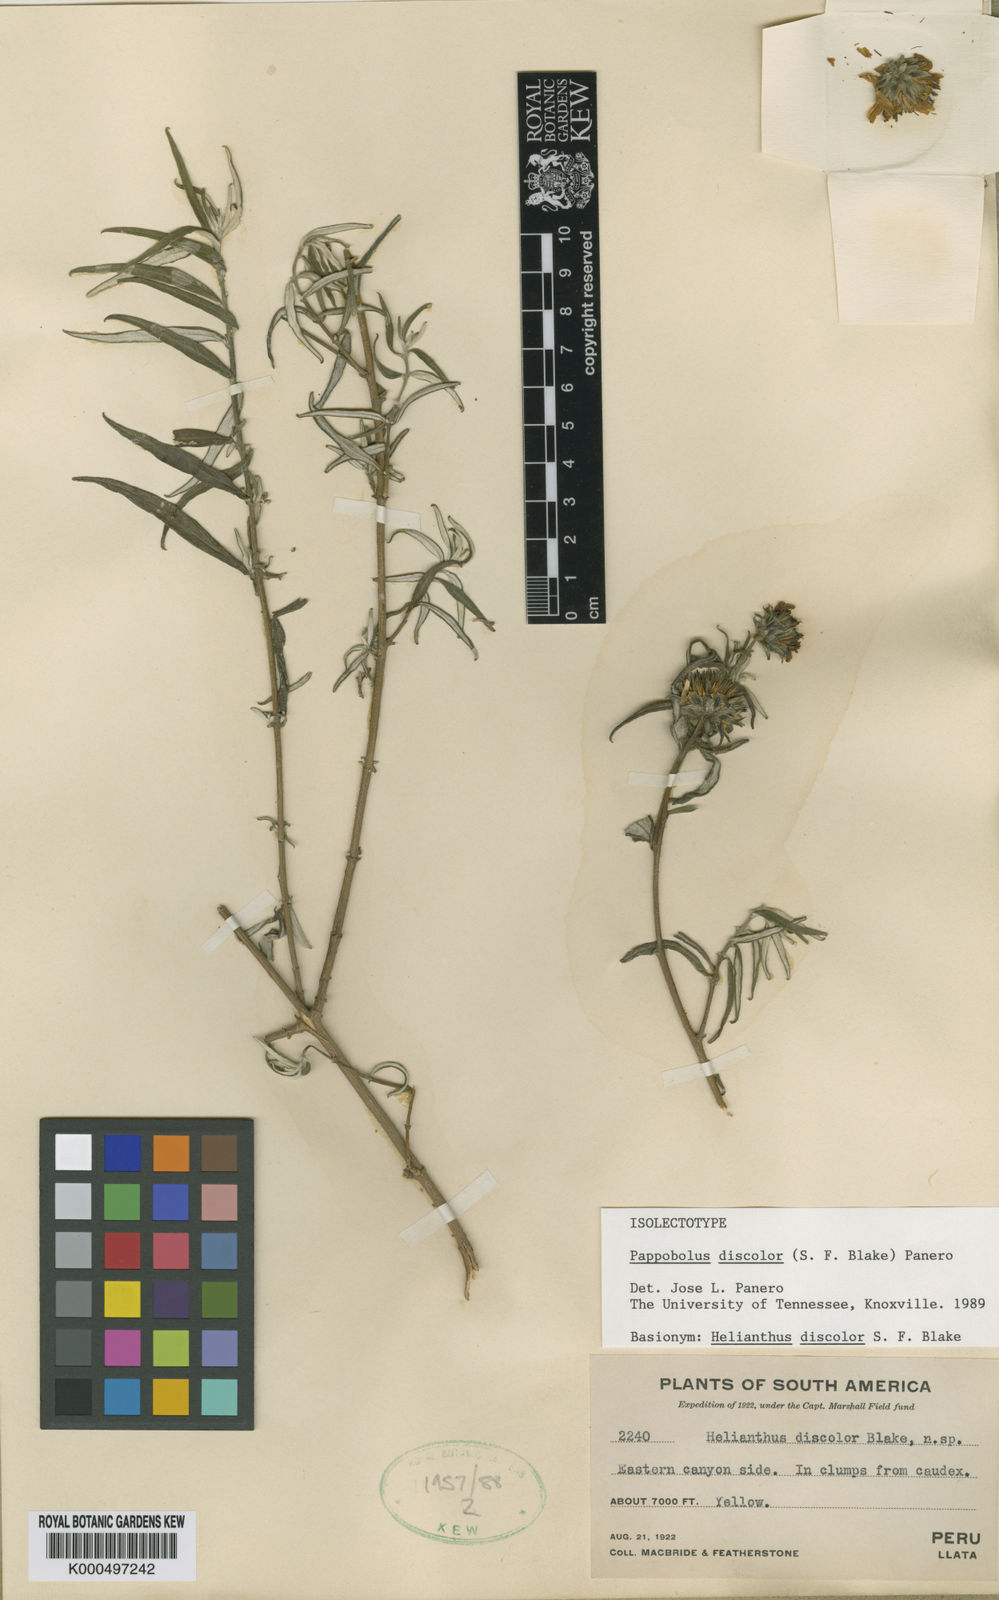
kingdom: Plantae
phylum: Tracheophyta
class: Magnoliopsida
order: Asterales
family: Asteraceae
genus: Pappobolus
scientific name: Pappobolus discolor
